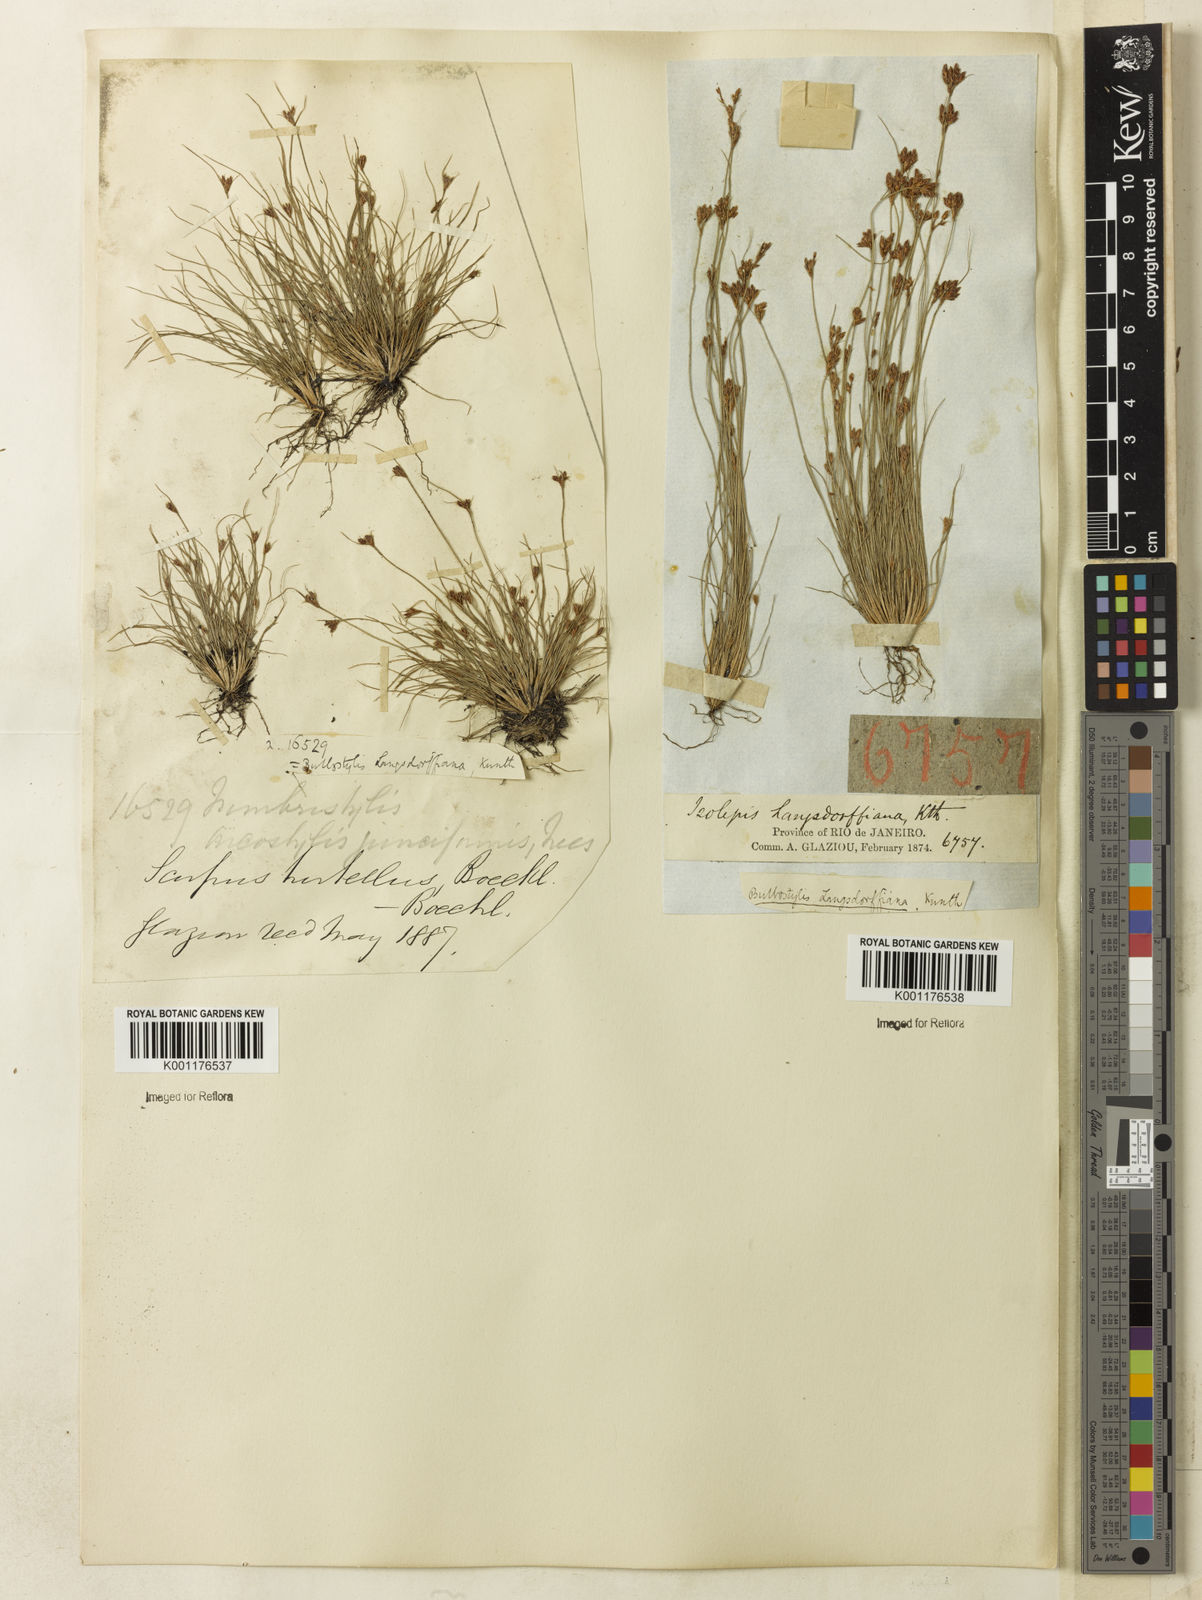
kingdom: Plantae
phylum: Tracheophyta
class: Liliopsida
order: Poales
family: Cyperaceae
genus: Bulbostylis
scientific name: Bulbostylis juncoides
